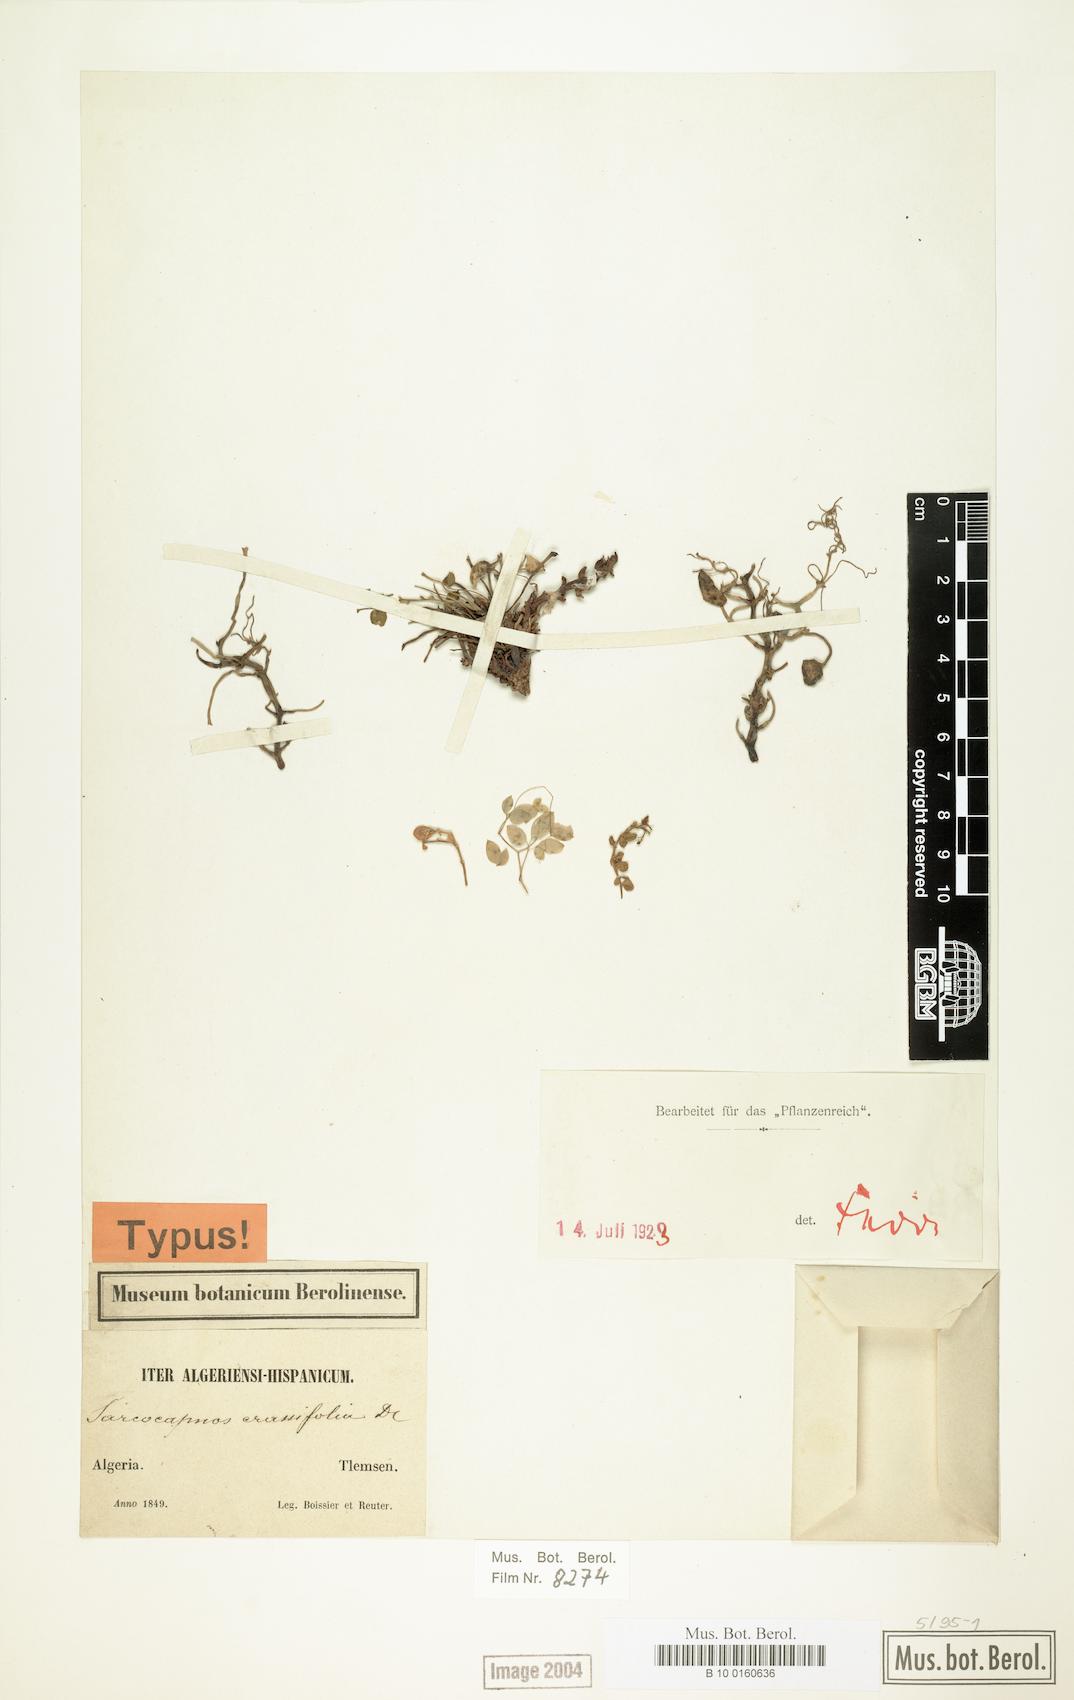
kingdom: Plantae
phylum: Tracheophyta
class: Magnoliopsida
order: Ranunculales
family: Papaveraceae
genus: Sarcocapnos
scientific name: Sarcocapnos crassifolia
